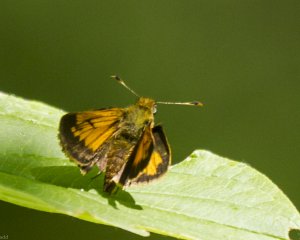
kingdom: Animalia
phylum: Arthropoda
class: Insecta
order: Lepidoptera
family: Hesperiidae
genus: Lon
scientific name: Lon hobomok
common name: Hobomok Skipper
